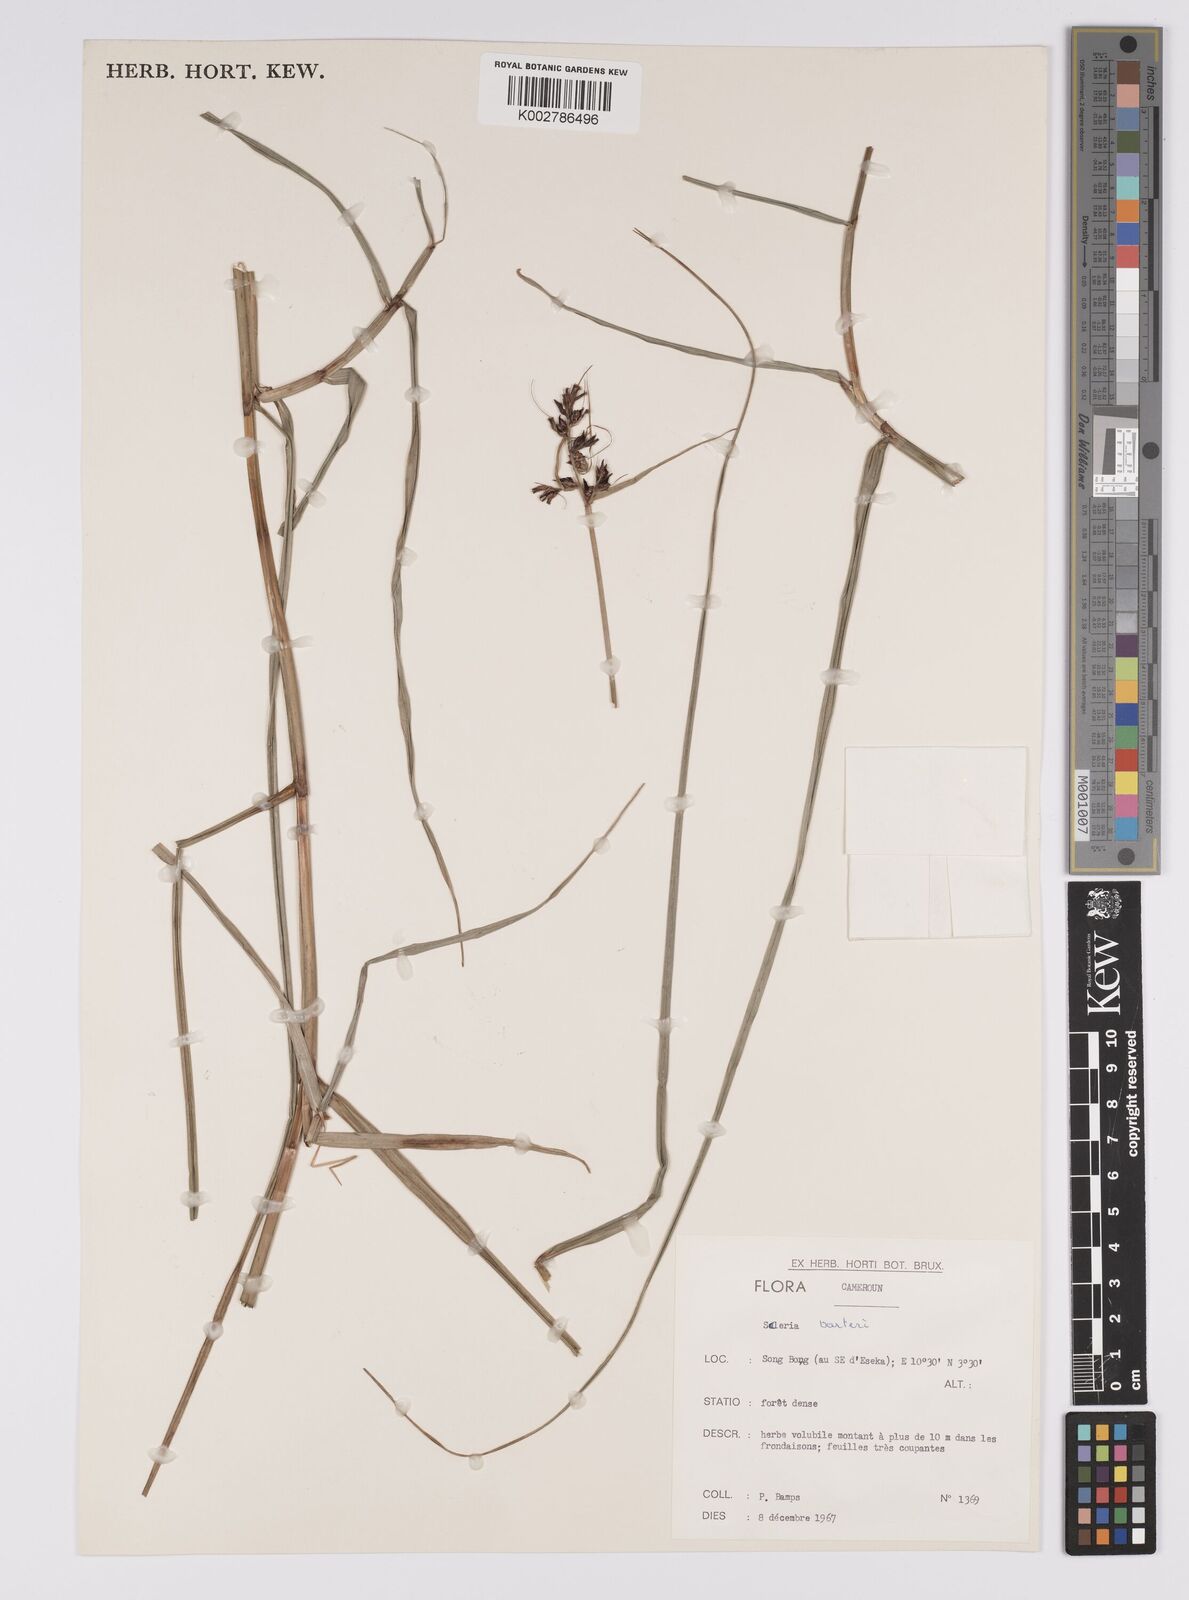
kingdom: Plantae
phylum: Tracheophyta
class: Liliopsida
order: Poales
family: Cyperaceae
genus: Scleria
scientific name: Scleria boivinii
